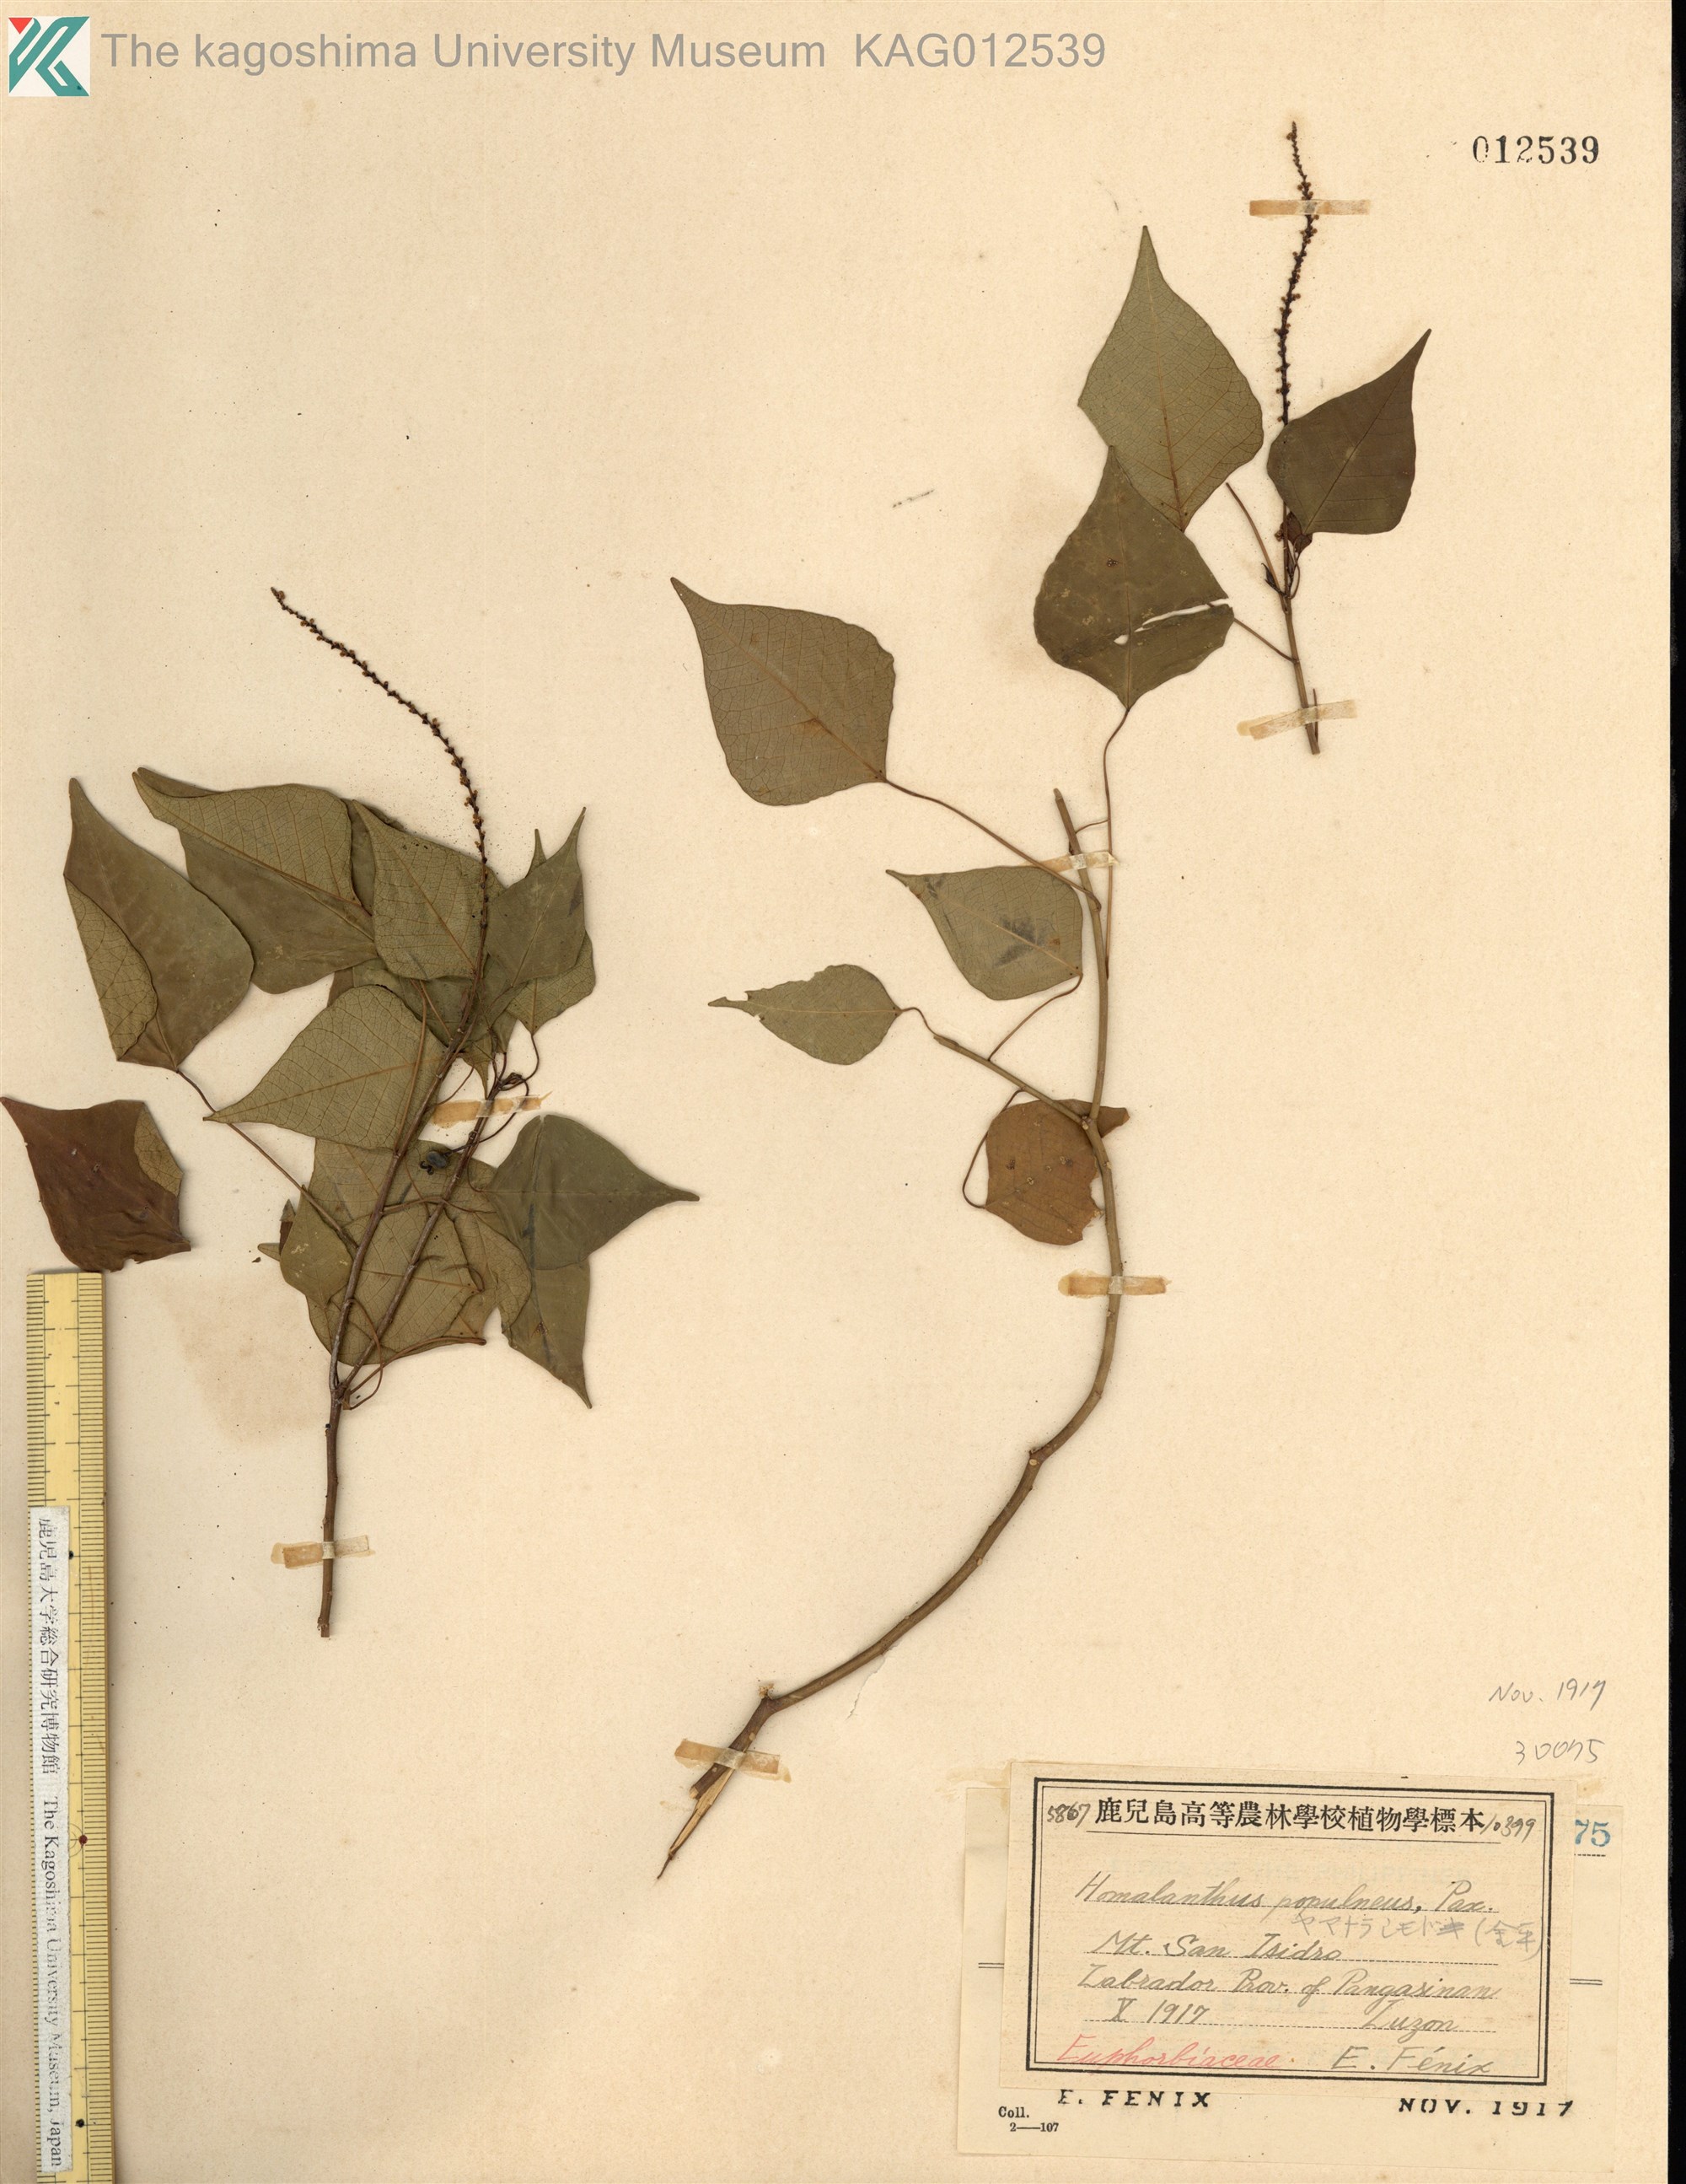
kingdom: Plantae
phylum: Tracheophyta
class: Magnoliopsida
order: Malpighiales
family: Euphorbiaceae
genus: Homalanthus
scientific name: Homalanthus populneus
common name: Spurge
